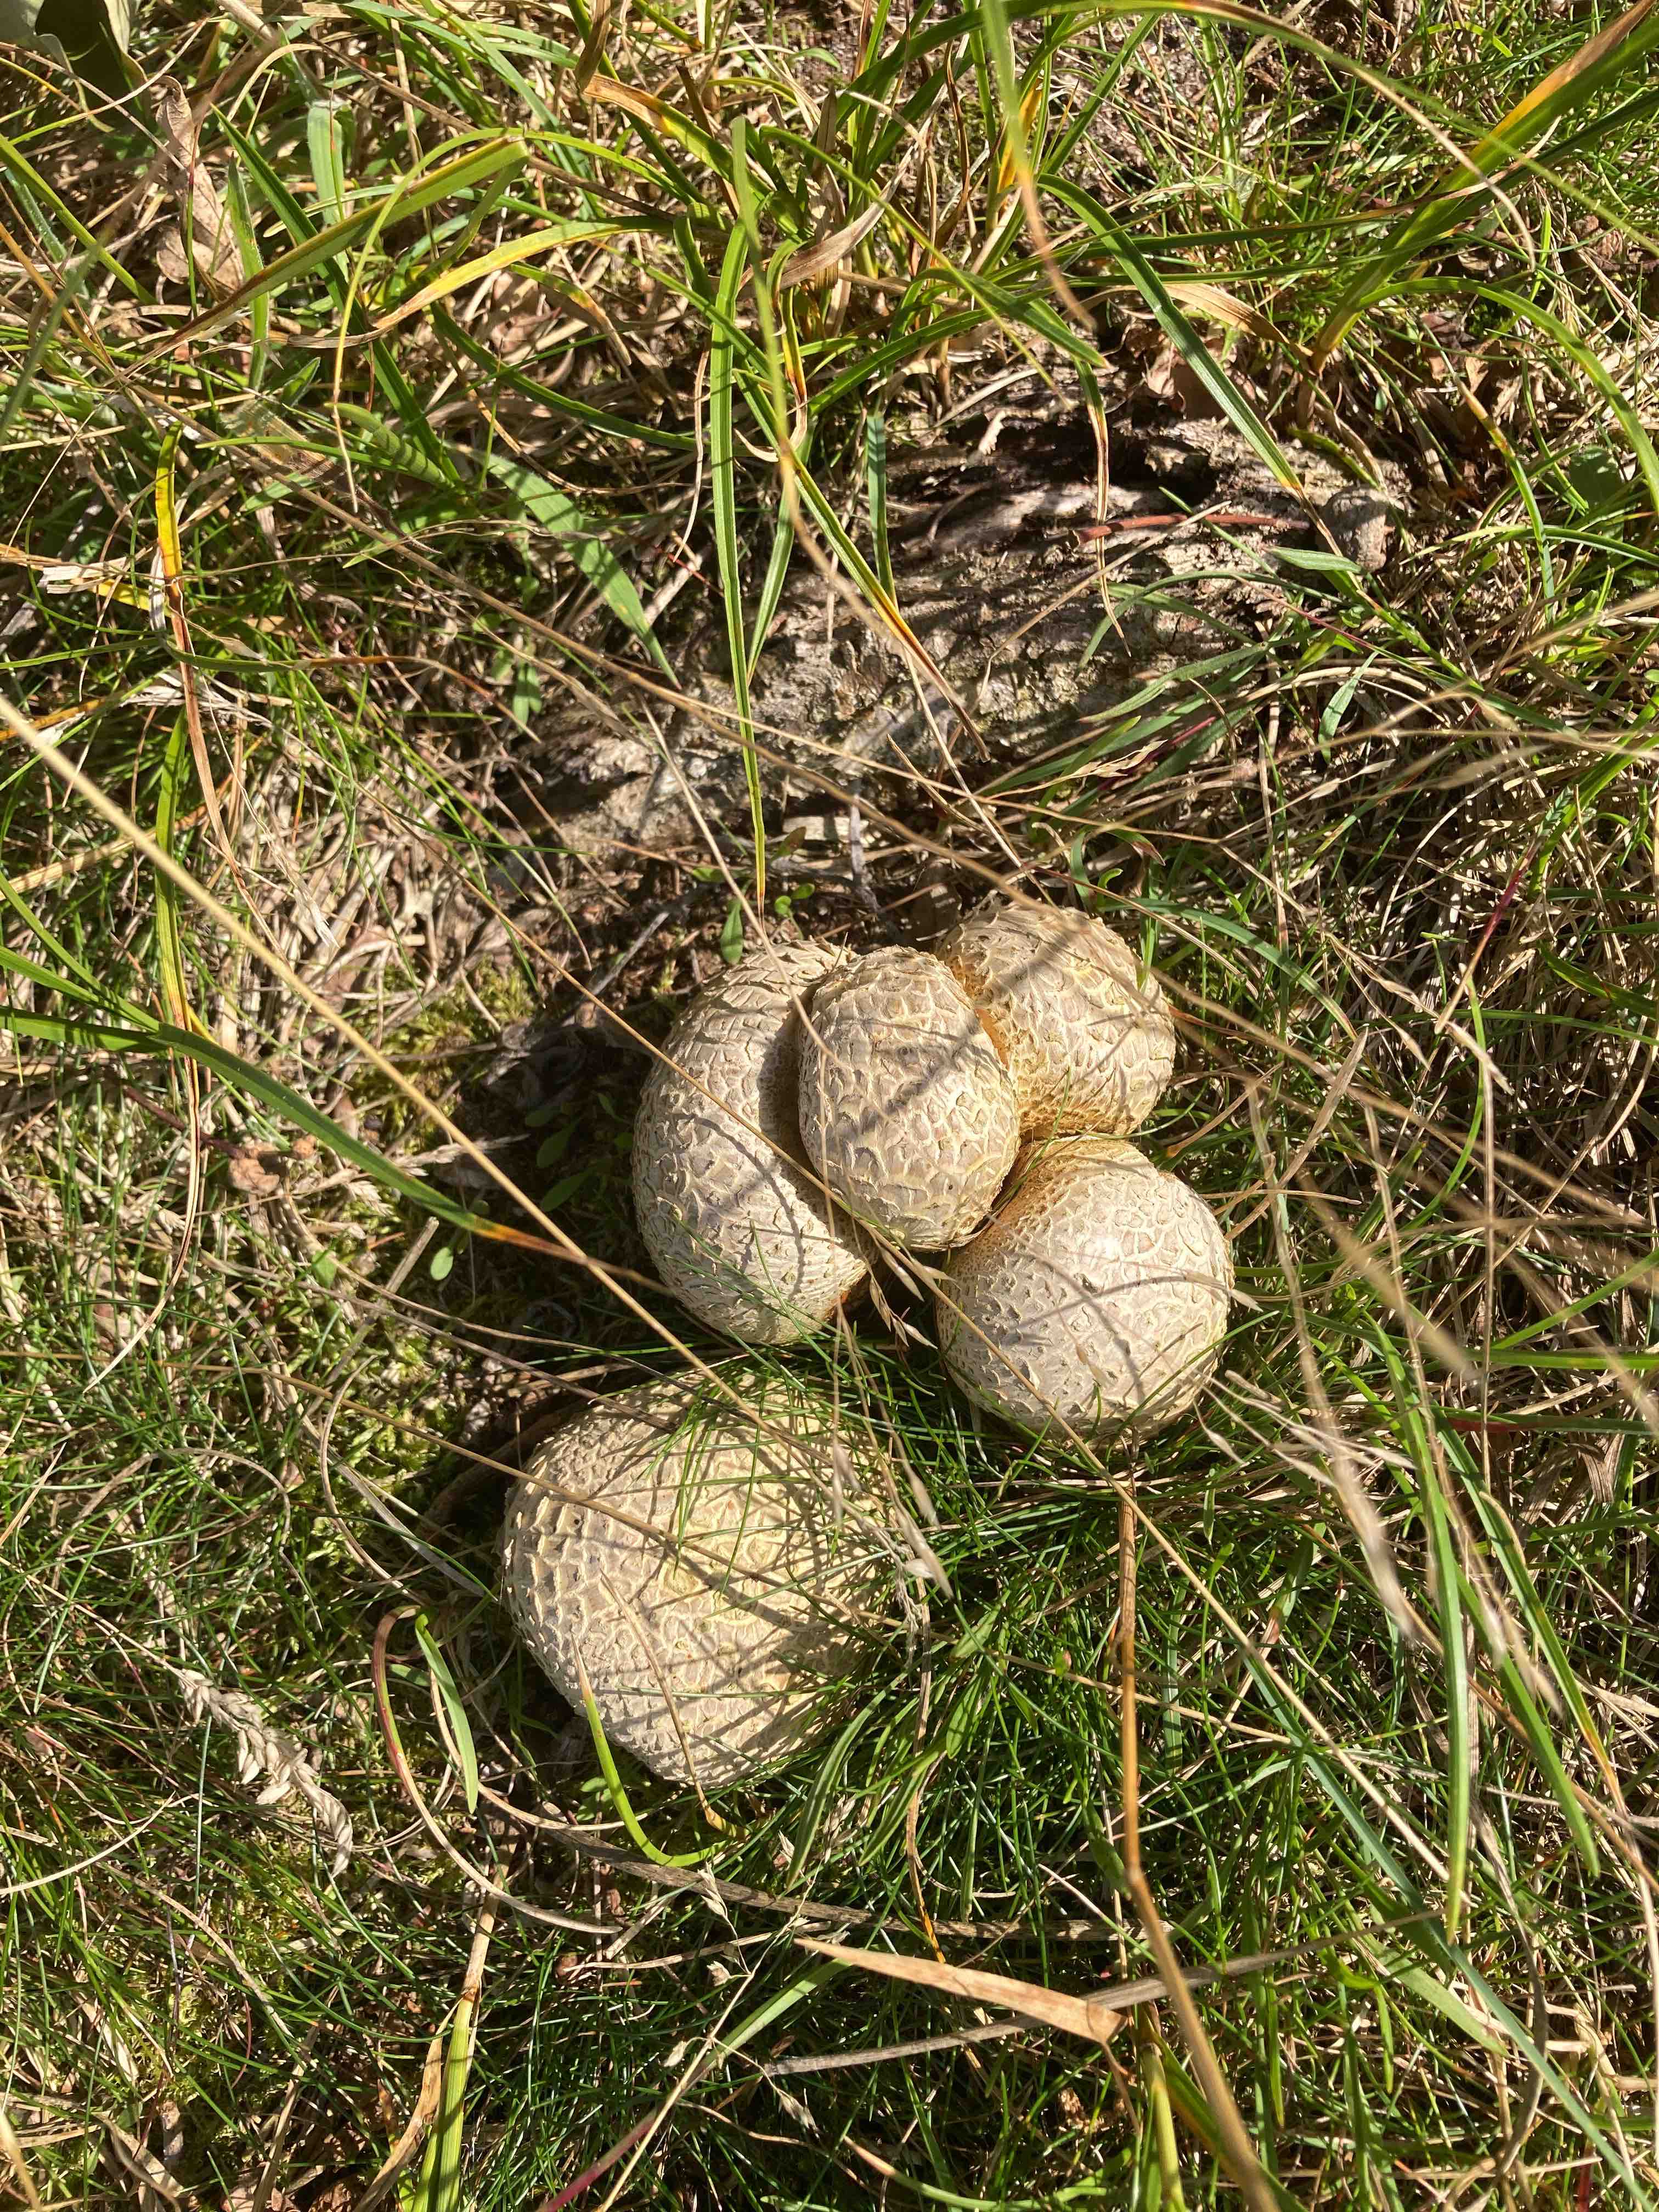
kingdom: Fungi
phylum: Basidiomycota
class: Agaricomycetes
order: Boletales
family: Sclerodermataceae
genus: Scleroderma
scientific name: Scleroderma citrinum
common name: almindelig bruskbold
